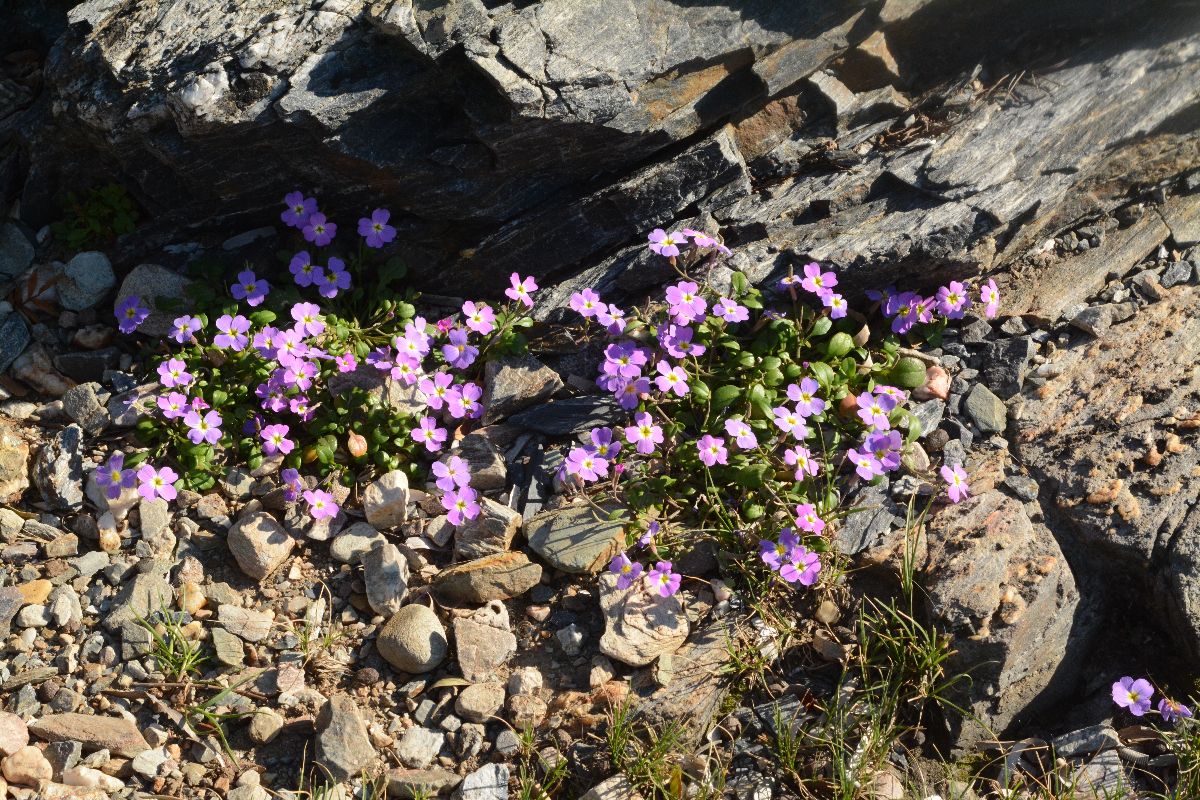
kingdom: Plantae
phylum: Tracheophyta
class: Magnoliopsida
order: Brassicales
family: Brassicaceae
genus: Malcolmia
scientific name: Malcolmia flexuosa
